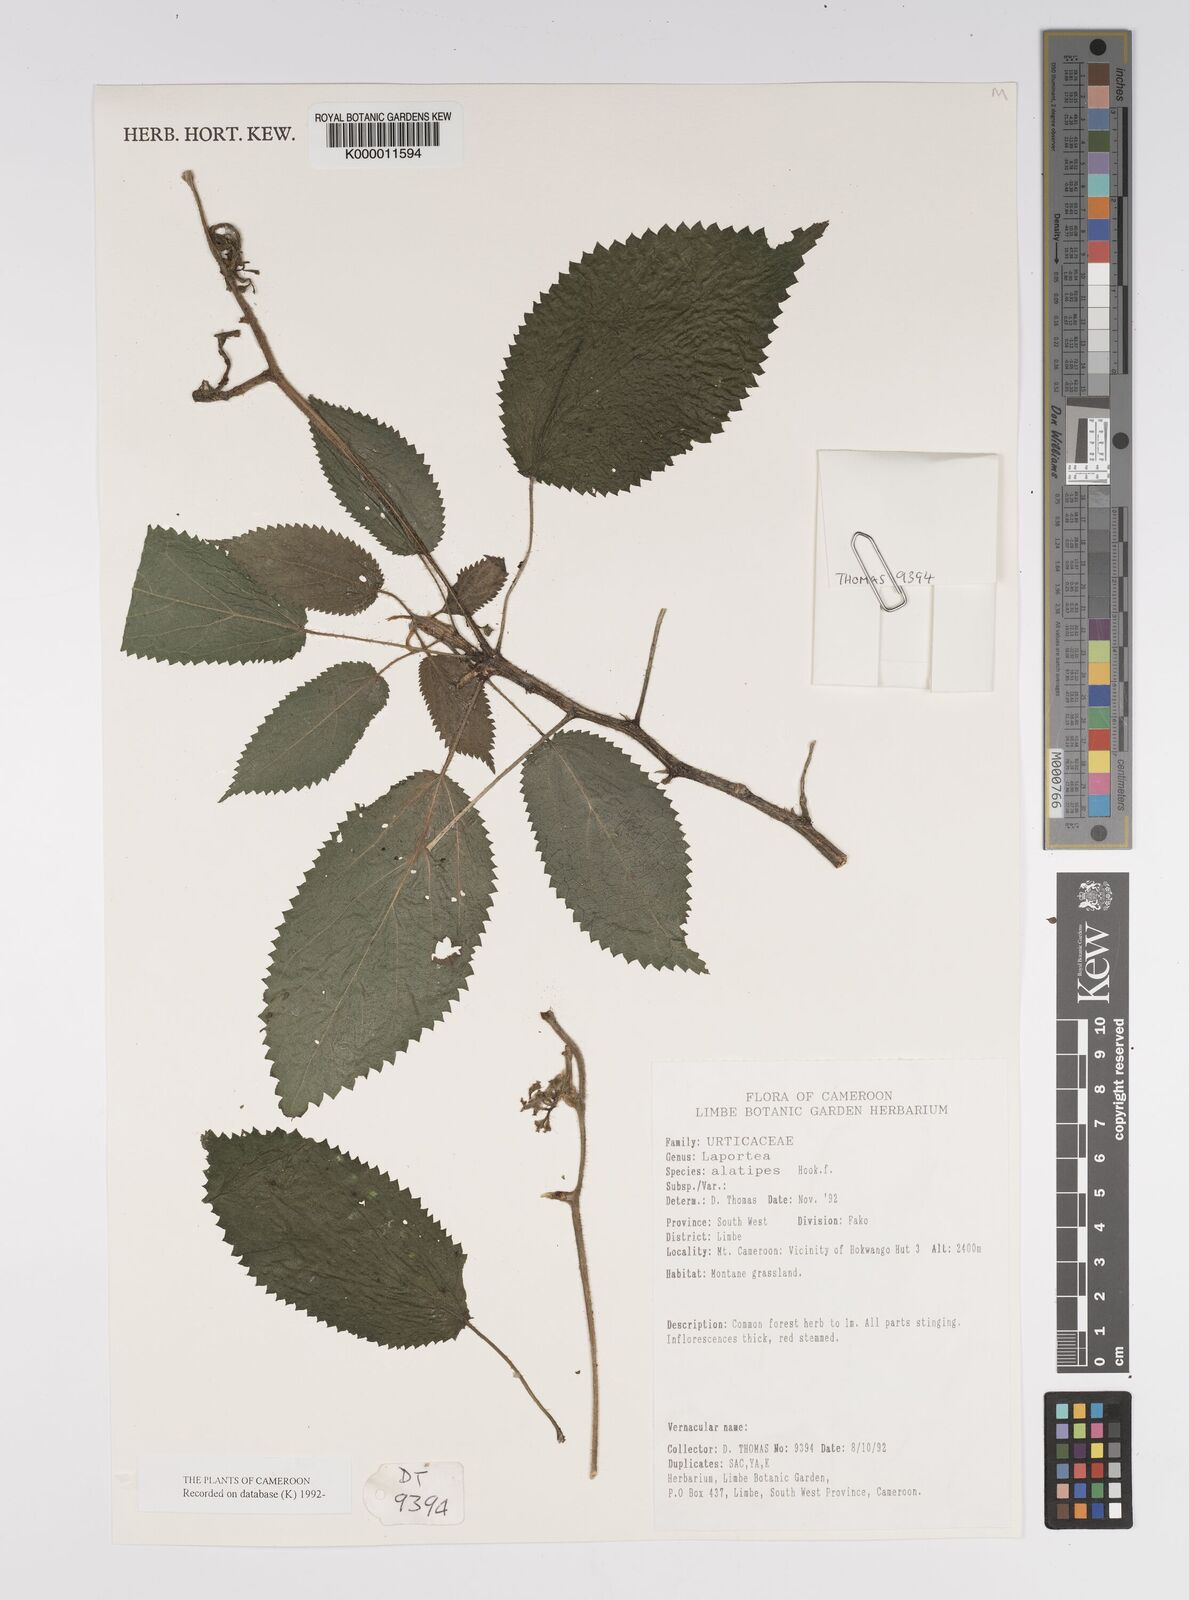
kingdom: Plantae
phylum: Tracheophyta
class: Magnoliopsida
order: Rosales
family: Urticaceae
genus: Laportea
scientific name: Laportea alatipes
